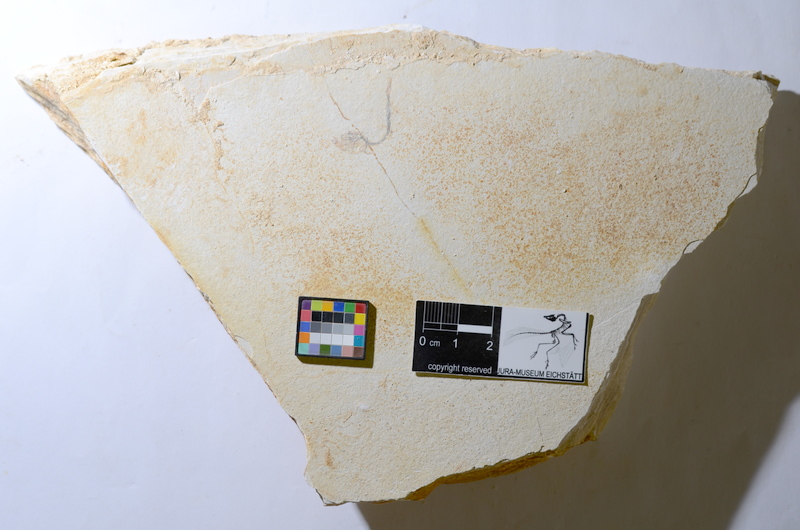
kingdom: Animalia
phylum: Chordata
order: Salmoniformes
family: Orthogonikleithridae
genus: Orthogonikleithrus
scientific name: Orthogonikleithrus hoelli
